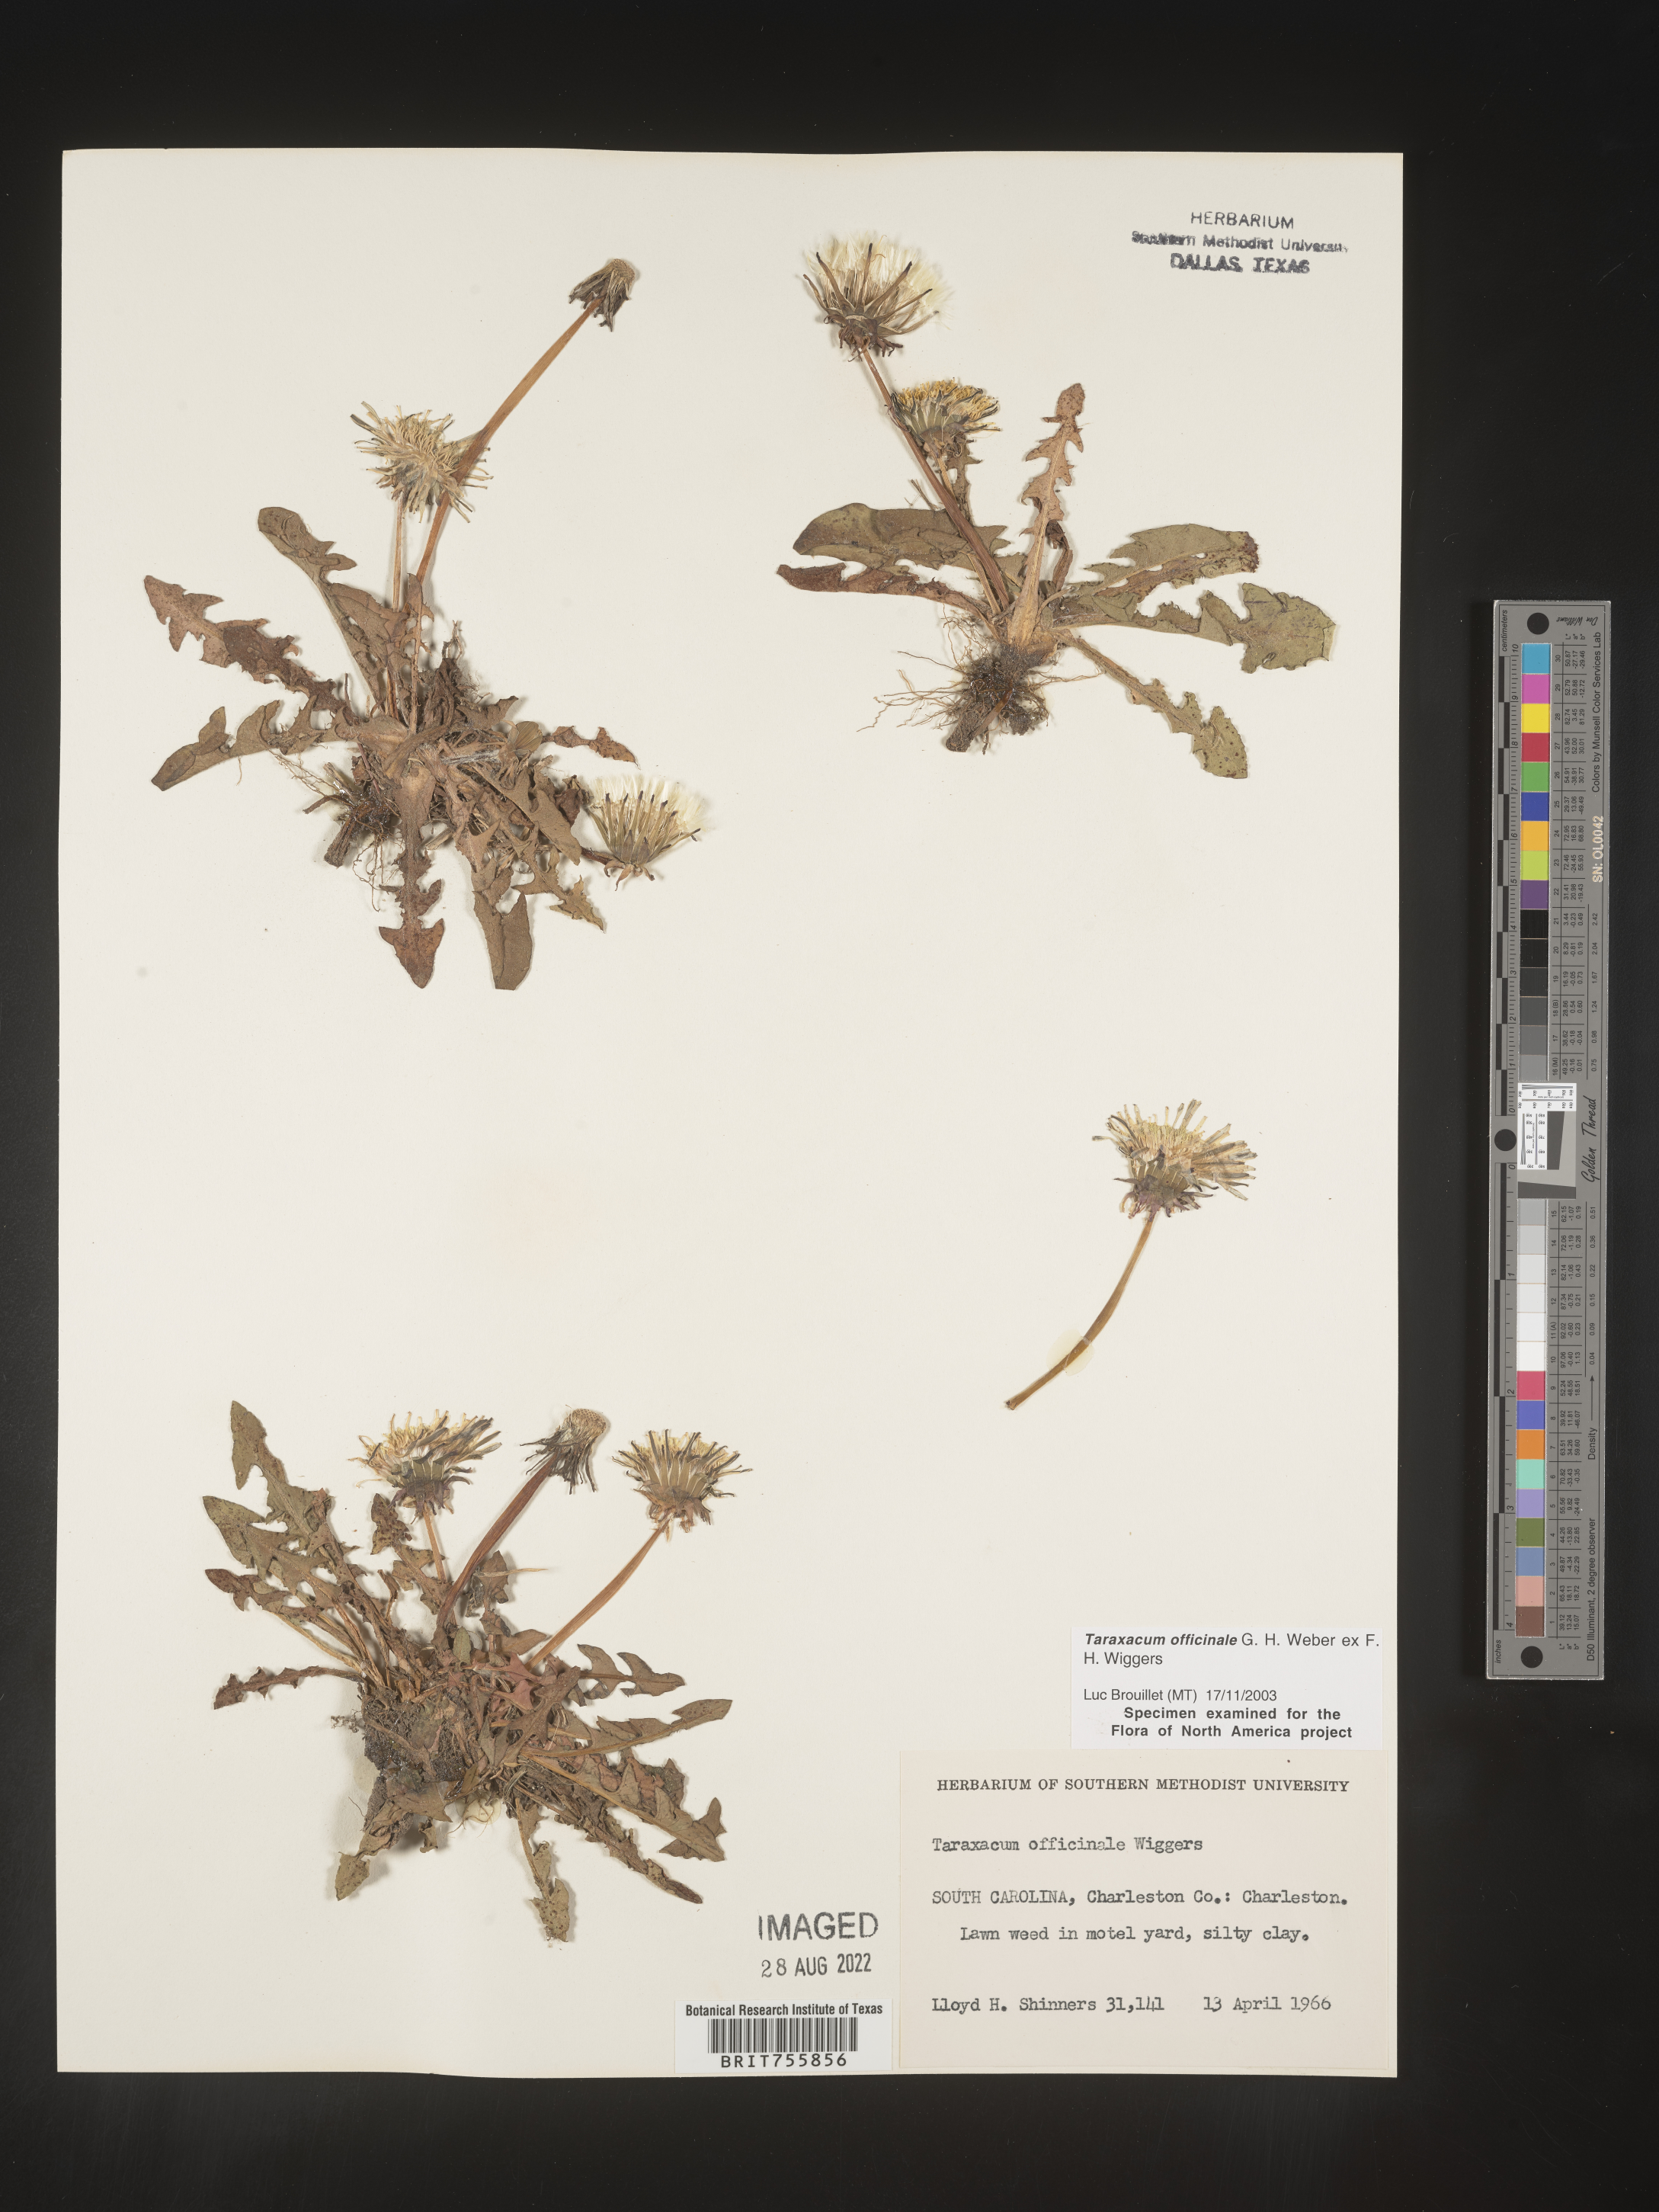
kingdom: Plantae
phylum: Tracheophyta
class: Magnoliopsida
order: Asterales
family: Asteraceae
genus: Taraxacum
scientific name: Taraxacum officinale
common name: Common dandelion
